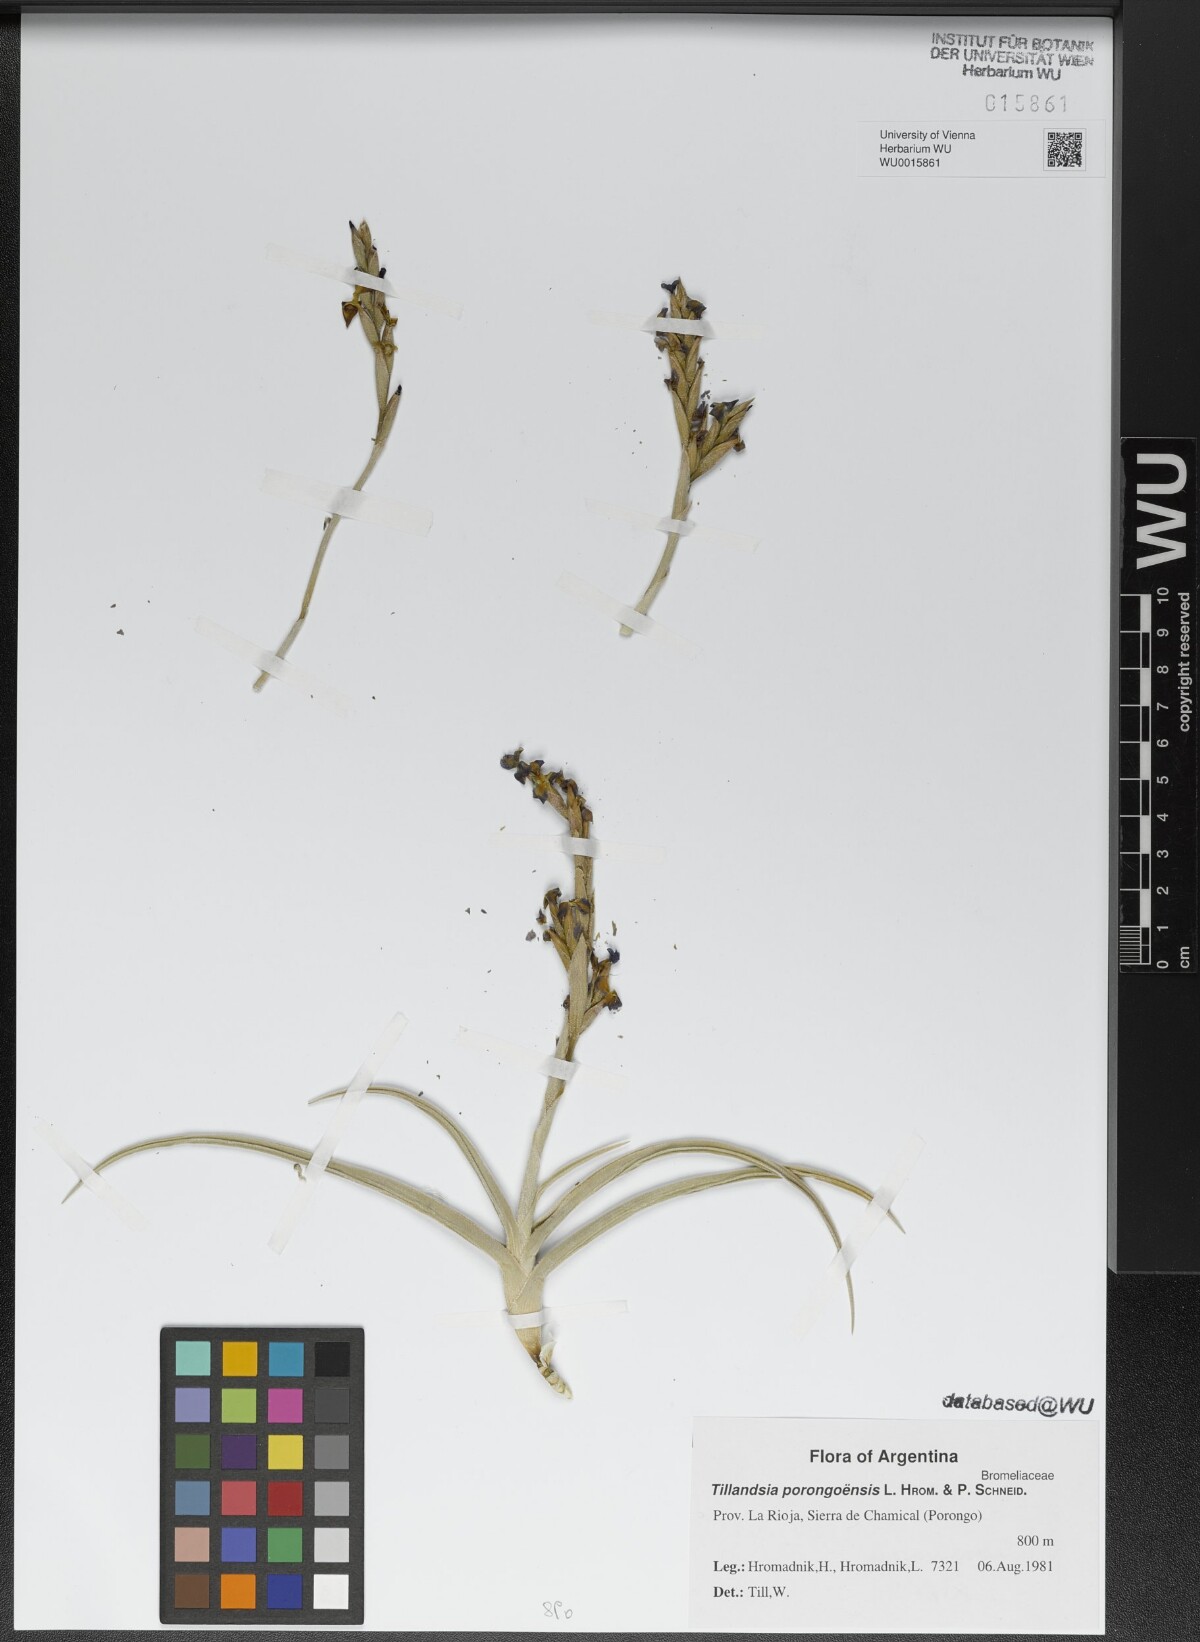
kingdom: Plantae
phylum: Tracheophyta
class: Liliopsida
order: Poales
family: Bromeliaceae
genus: Tillandsia
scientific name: Tillandsia porongoensis
